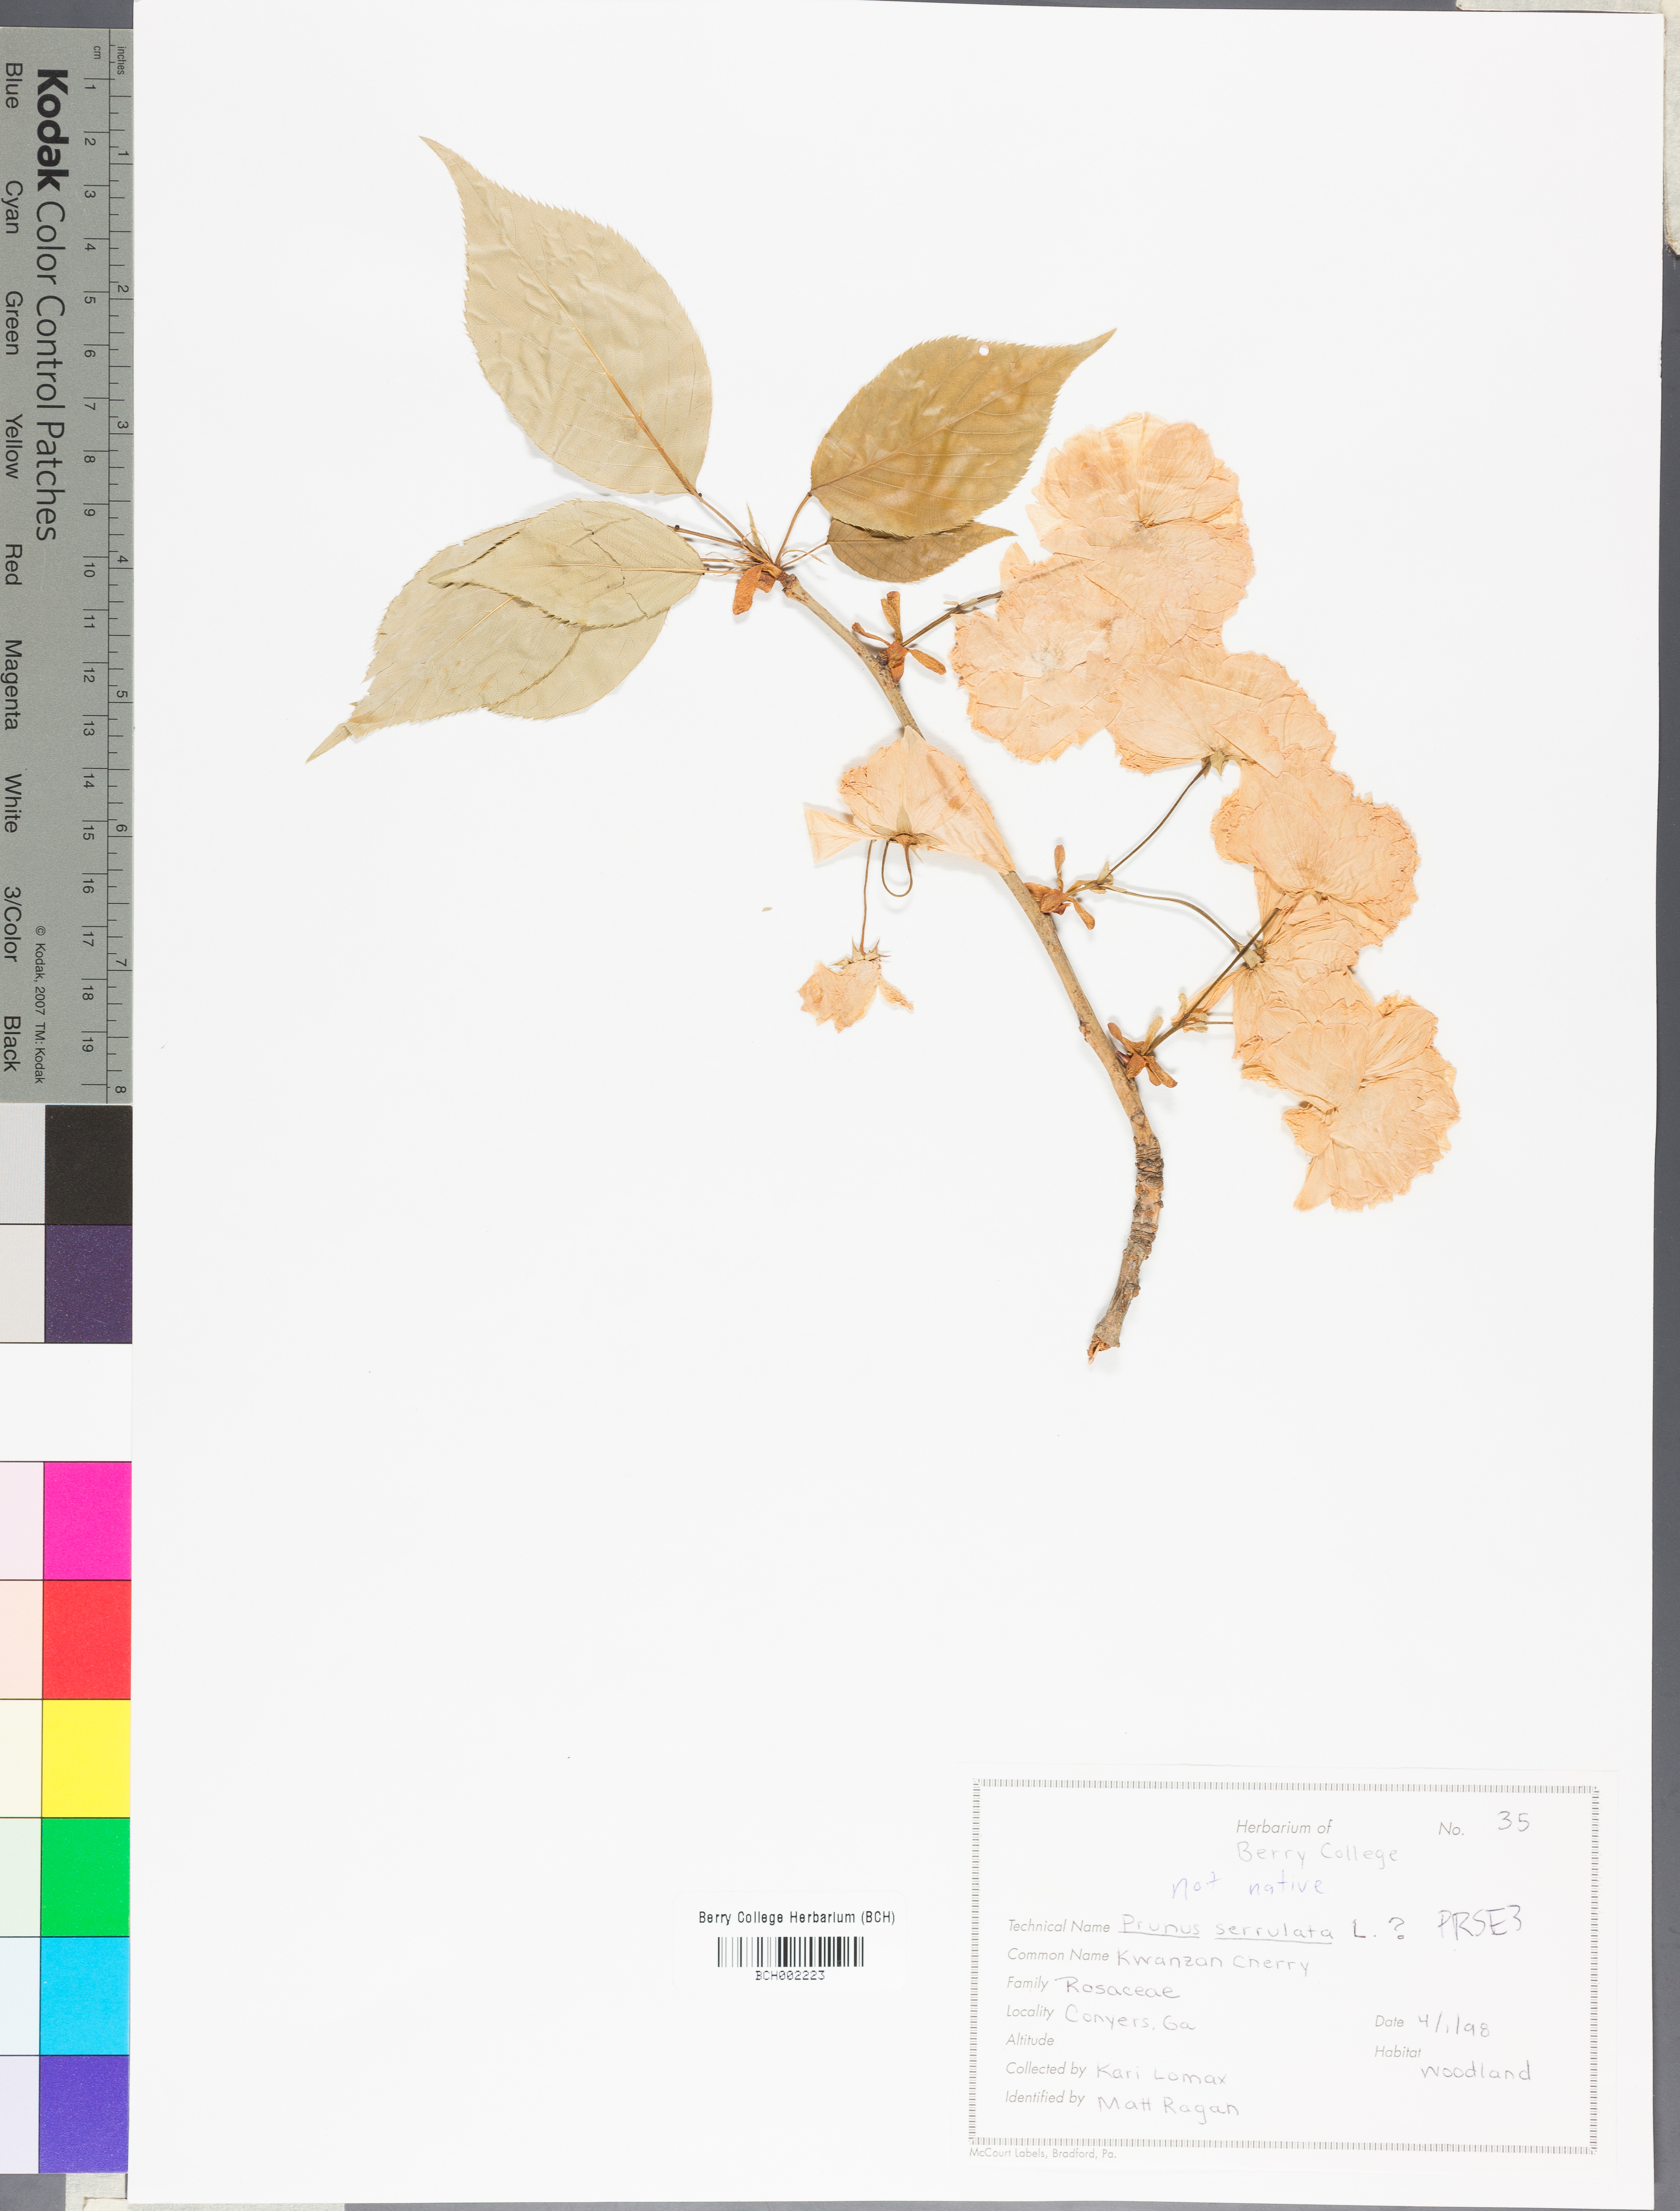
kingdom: Plantae
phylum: Tracheophyta
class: Magnoliopsida
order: Rosales
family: Rosaceae
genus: Prunus
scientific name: Prunus serrulata
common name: Japanese cherry
